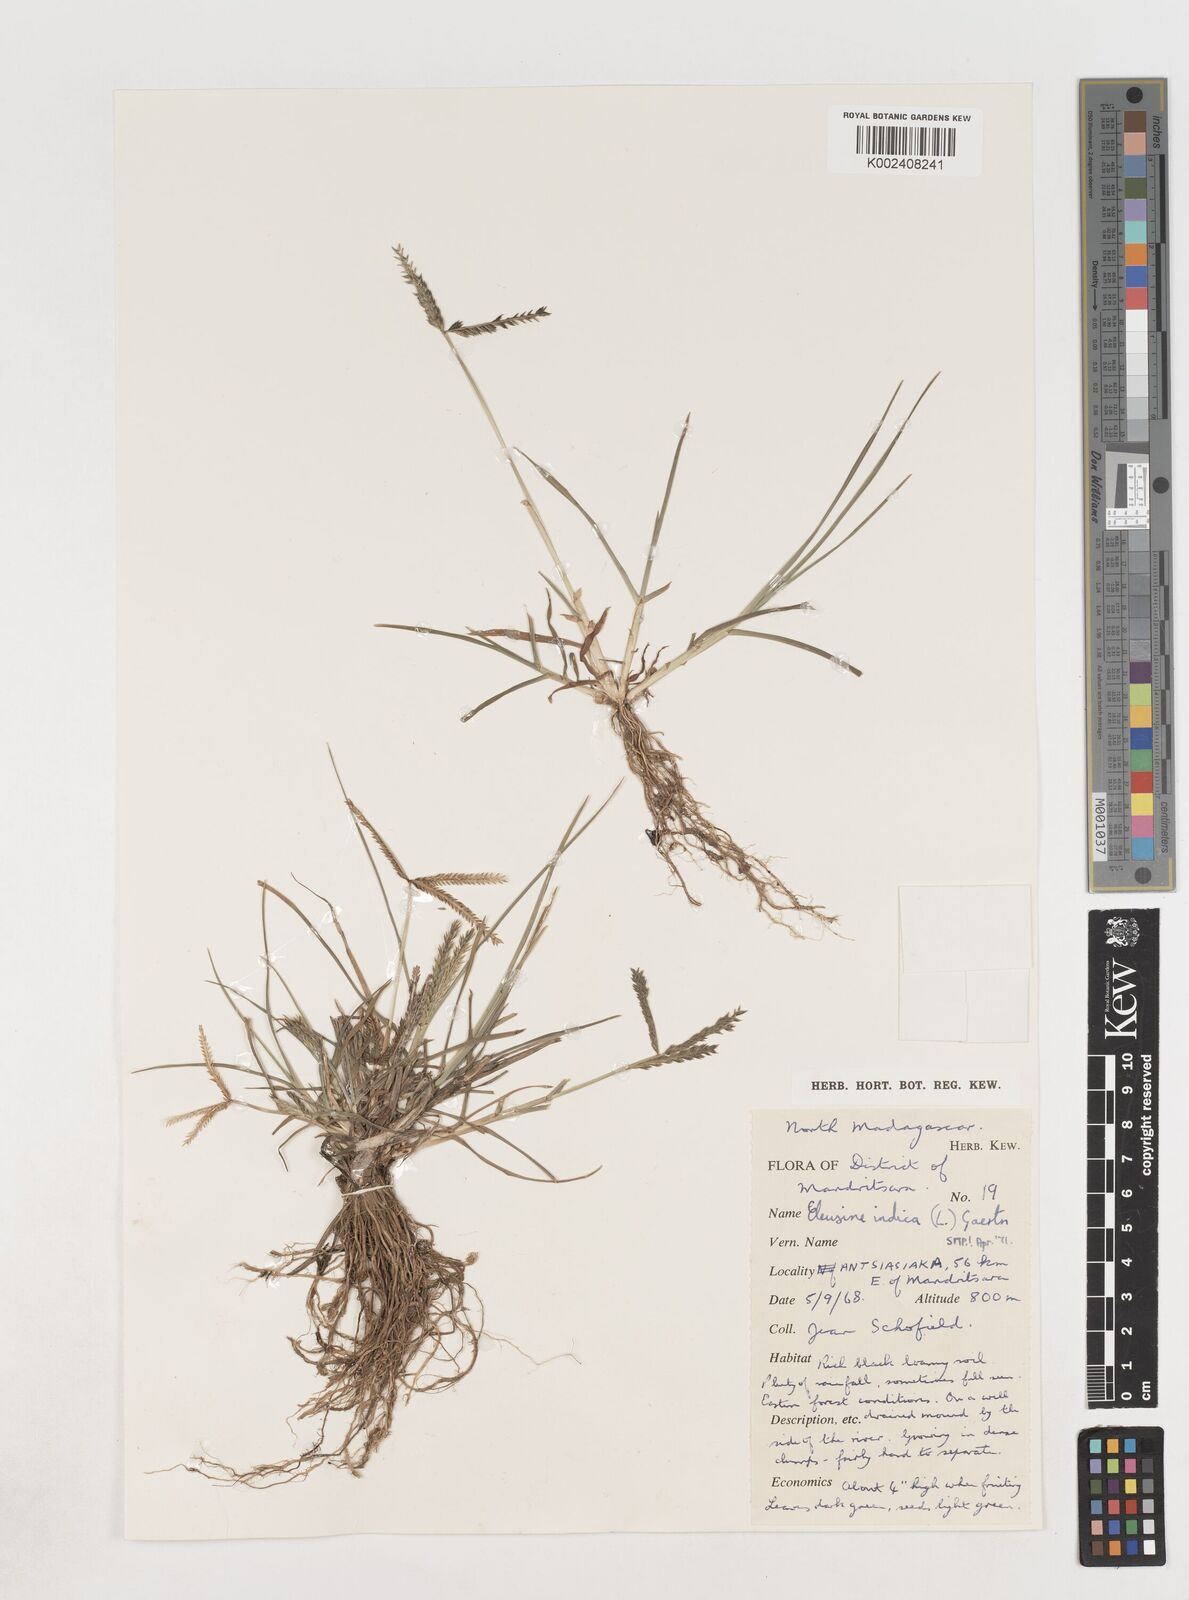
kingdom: Plantae
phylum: Tracheophyta
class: Liliopsida
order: Poales
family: Poaceae
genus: Eleusine
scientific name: Eleusine indica
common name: Yard-grass
